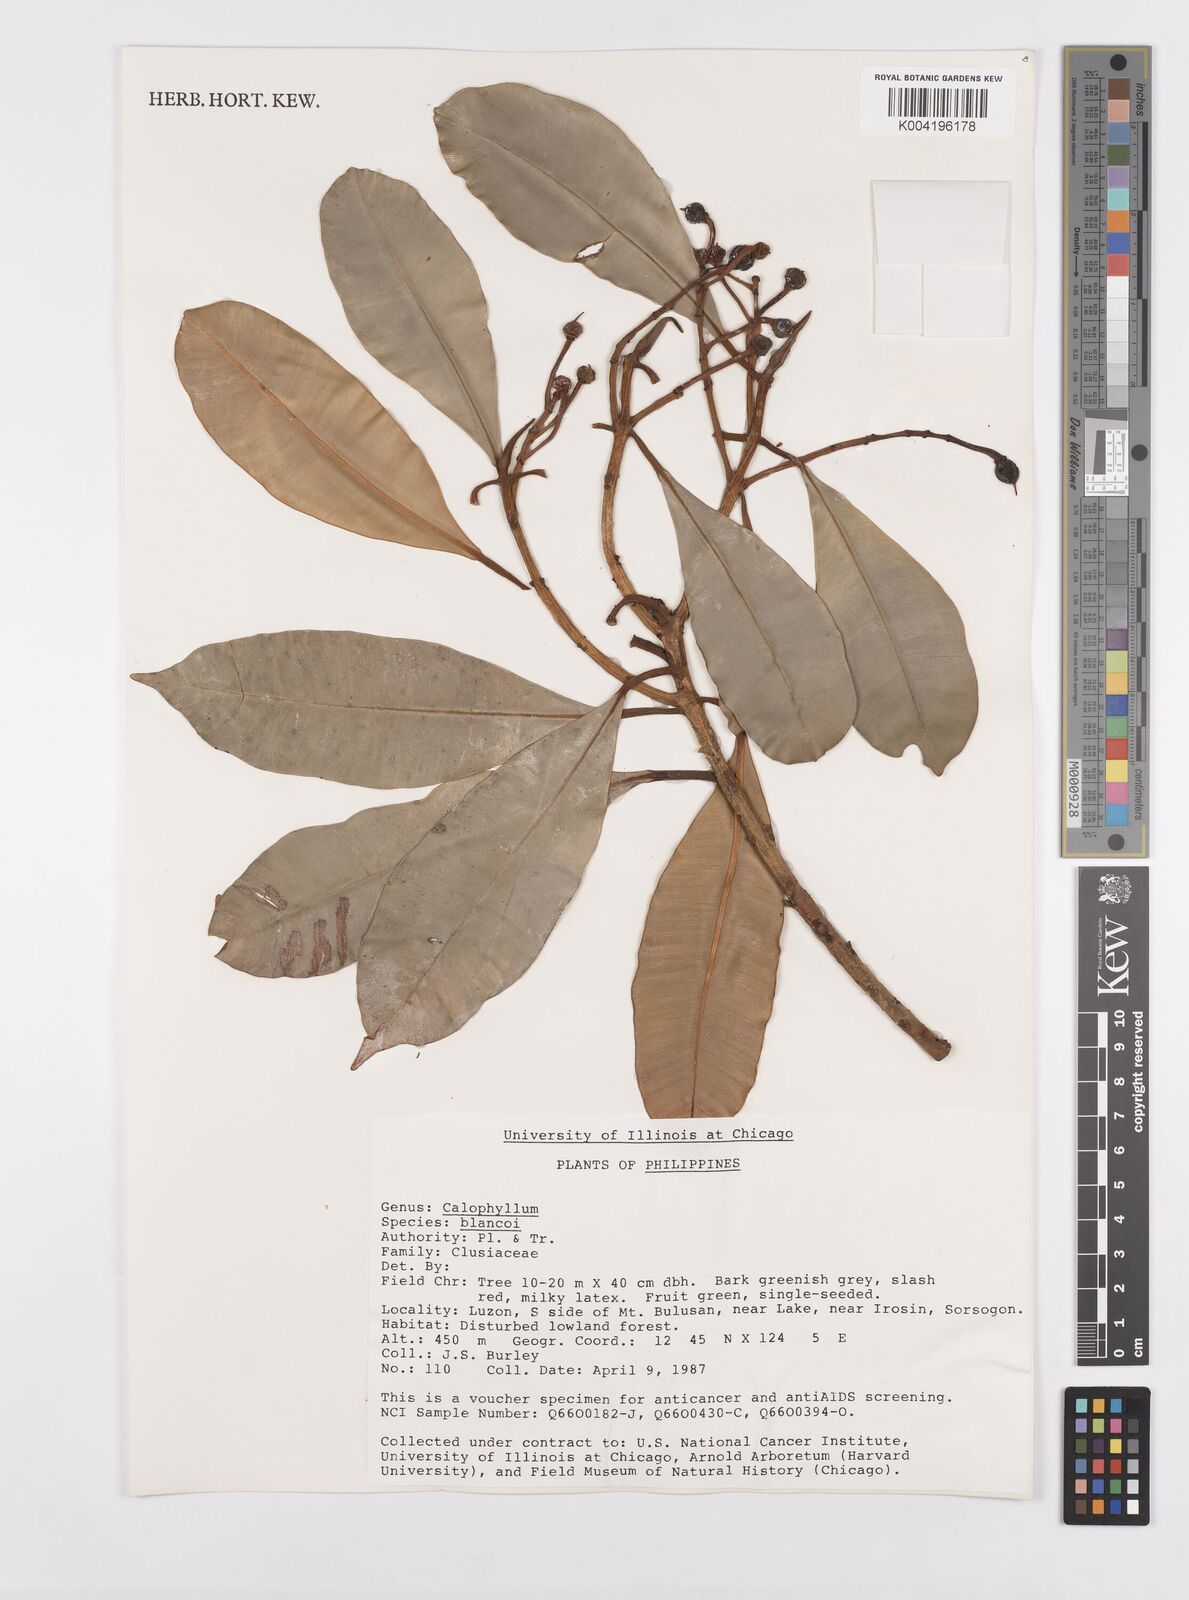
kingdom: Plantae
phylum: Tracheophyta
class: Magnoliopsida
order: Malpighiales
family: Calophyllaceae
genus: Calophyllum
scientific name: Calophyllum blancoi
